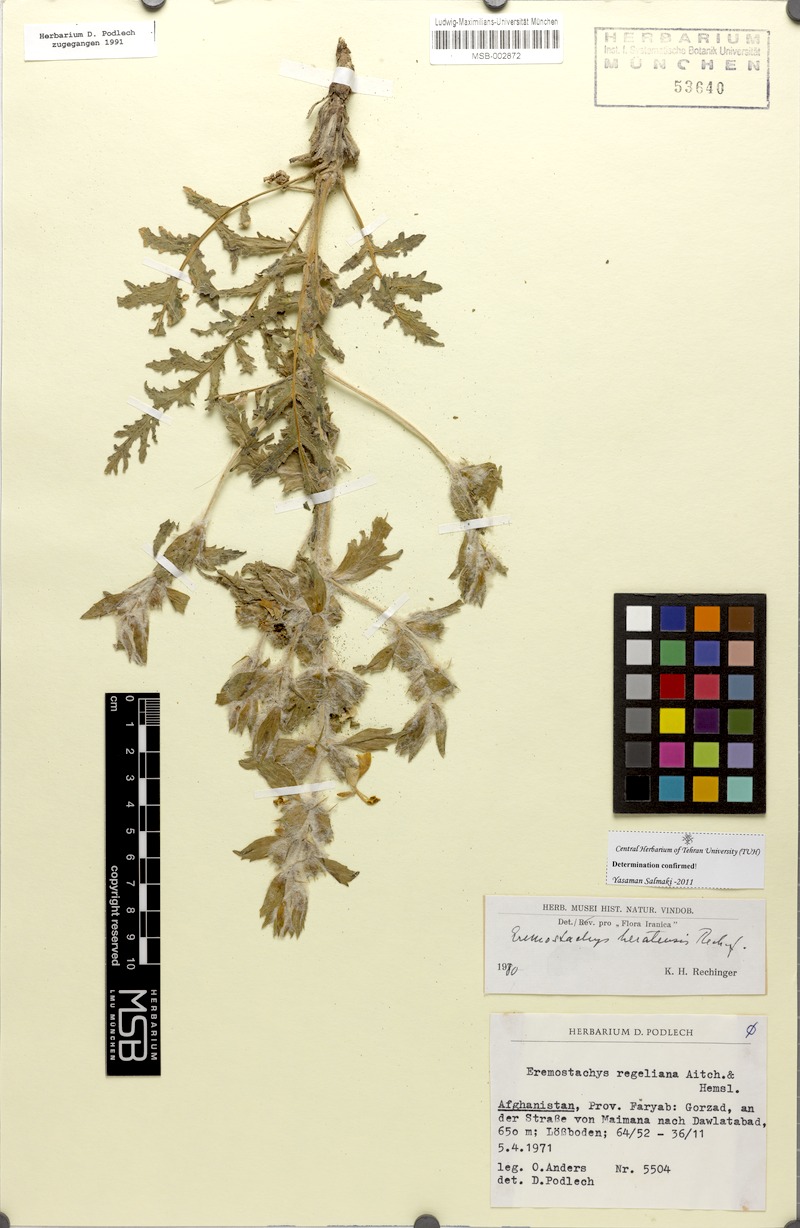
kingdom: Plantae
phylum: Tracheophyta
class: Magnoliopsida
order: Lamiales
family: Lamiaceae
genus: Phlomoides
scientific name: Phlomoides regeliana
